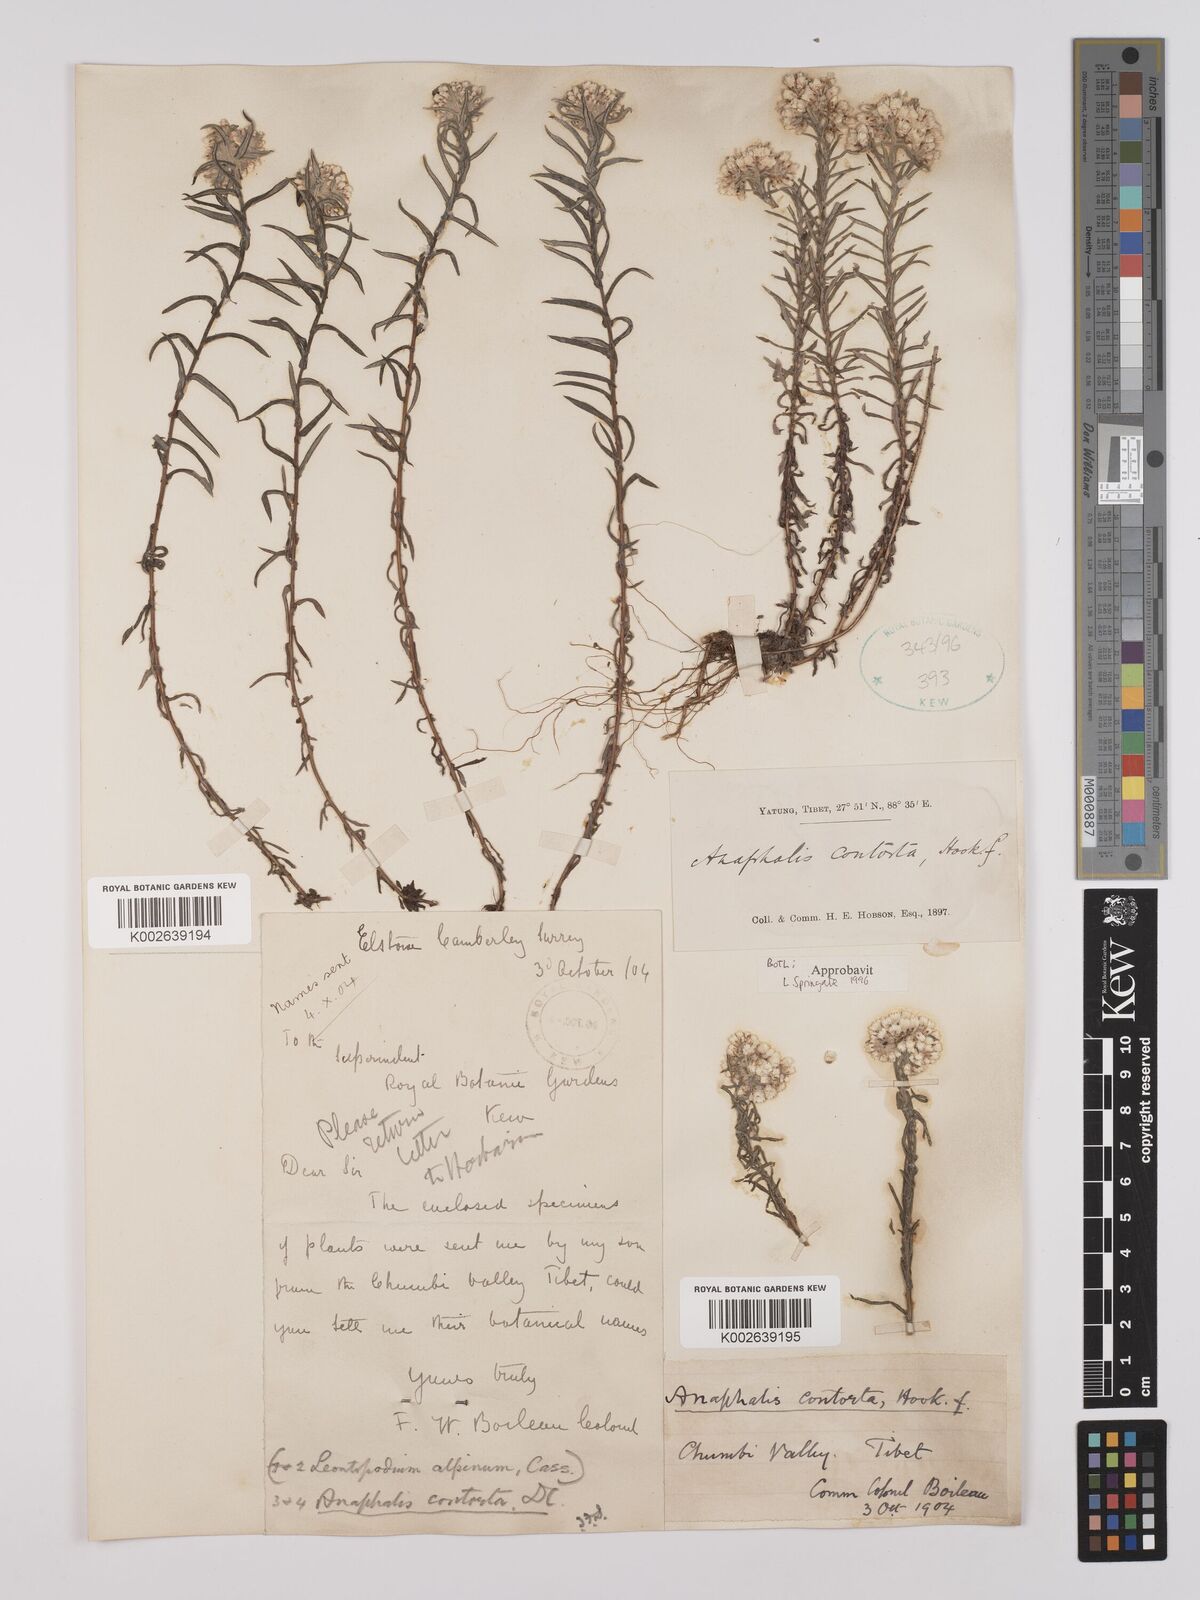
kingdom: Plantae
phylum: Tracheophyta
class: Magnoliopsida
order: Asterales
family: Asteraceae
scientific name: Asteraceae
